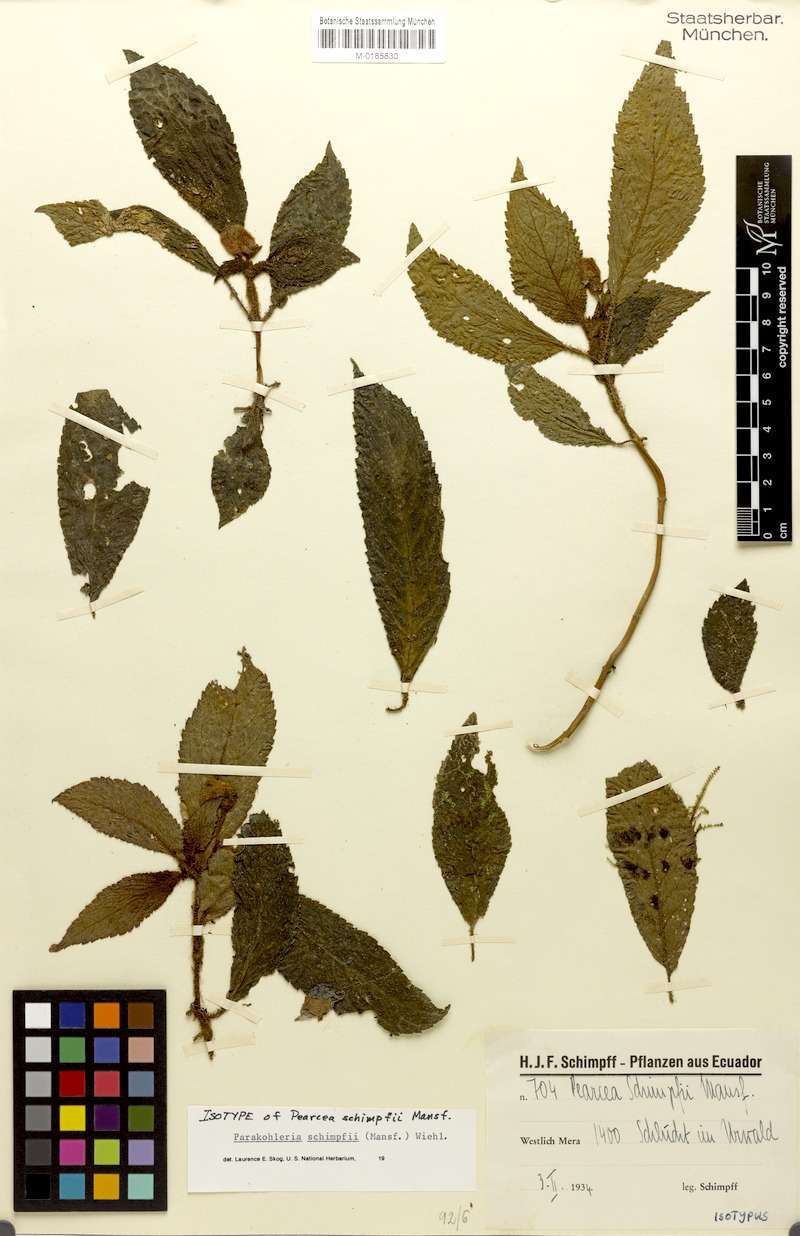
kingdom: Plantae
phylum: Tracheophyta
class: Magnoliopsida
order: Lamiales
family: Gesneriaceae
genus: Pearcea
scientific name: Pearcea schimpfii
